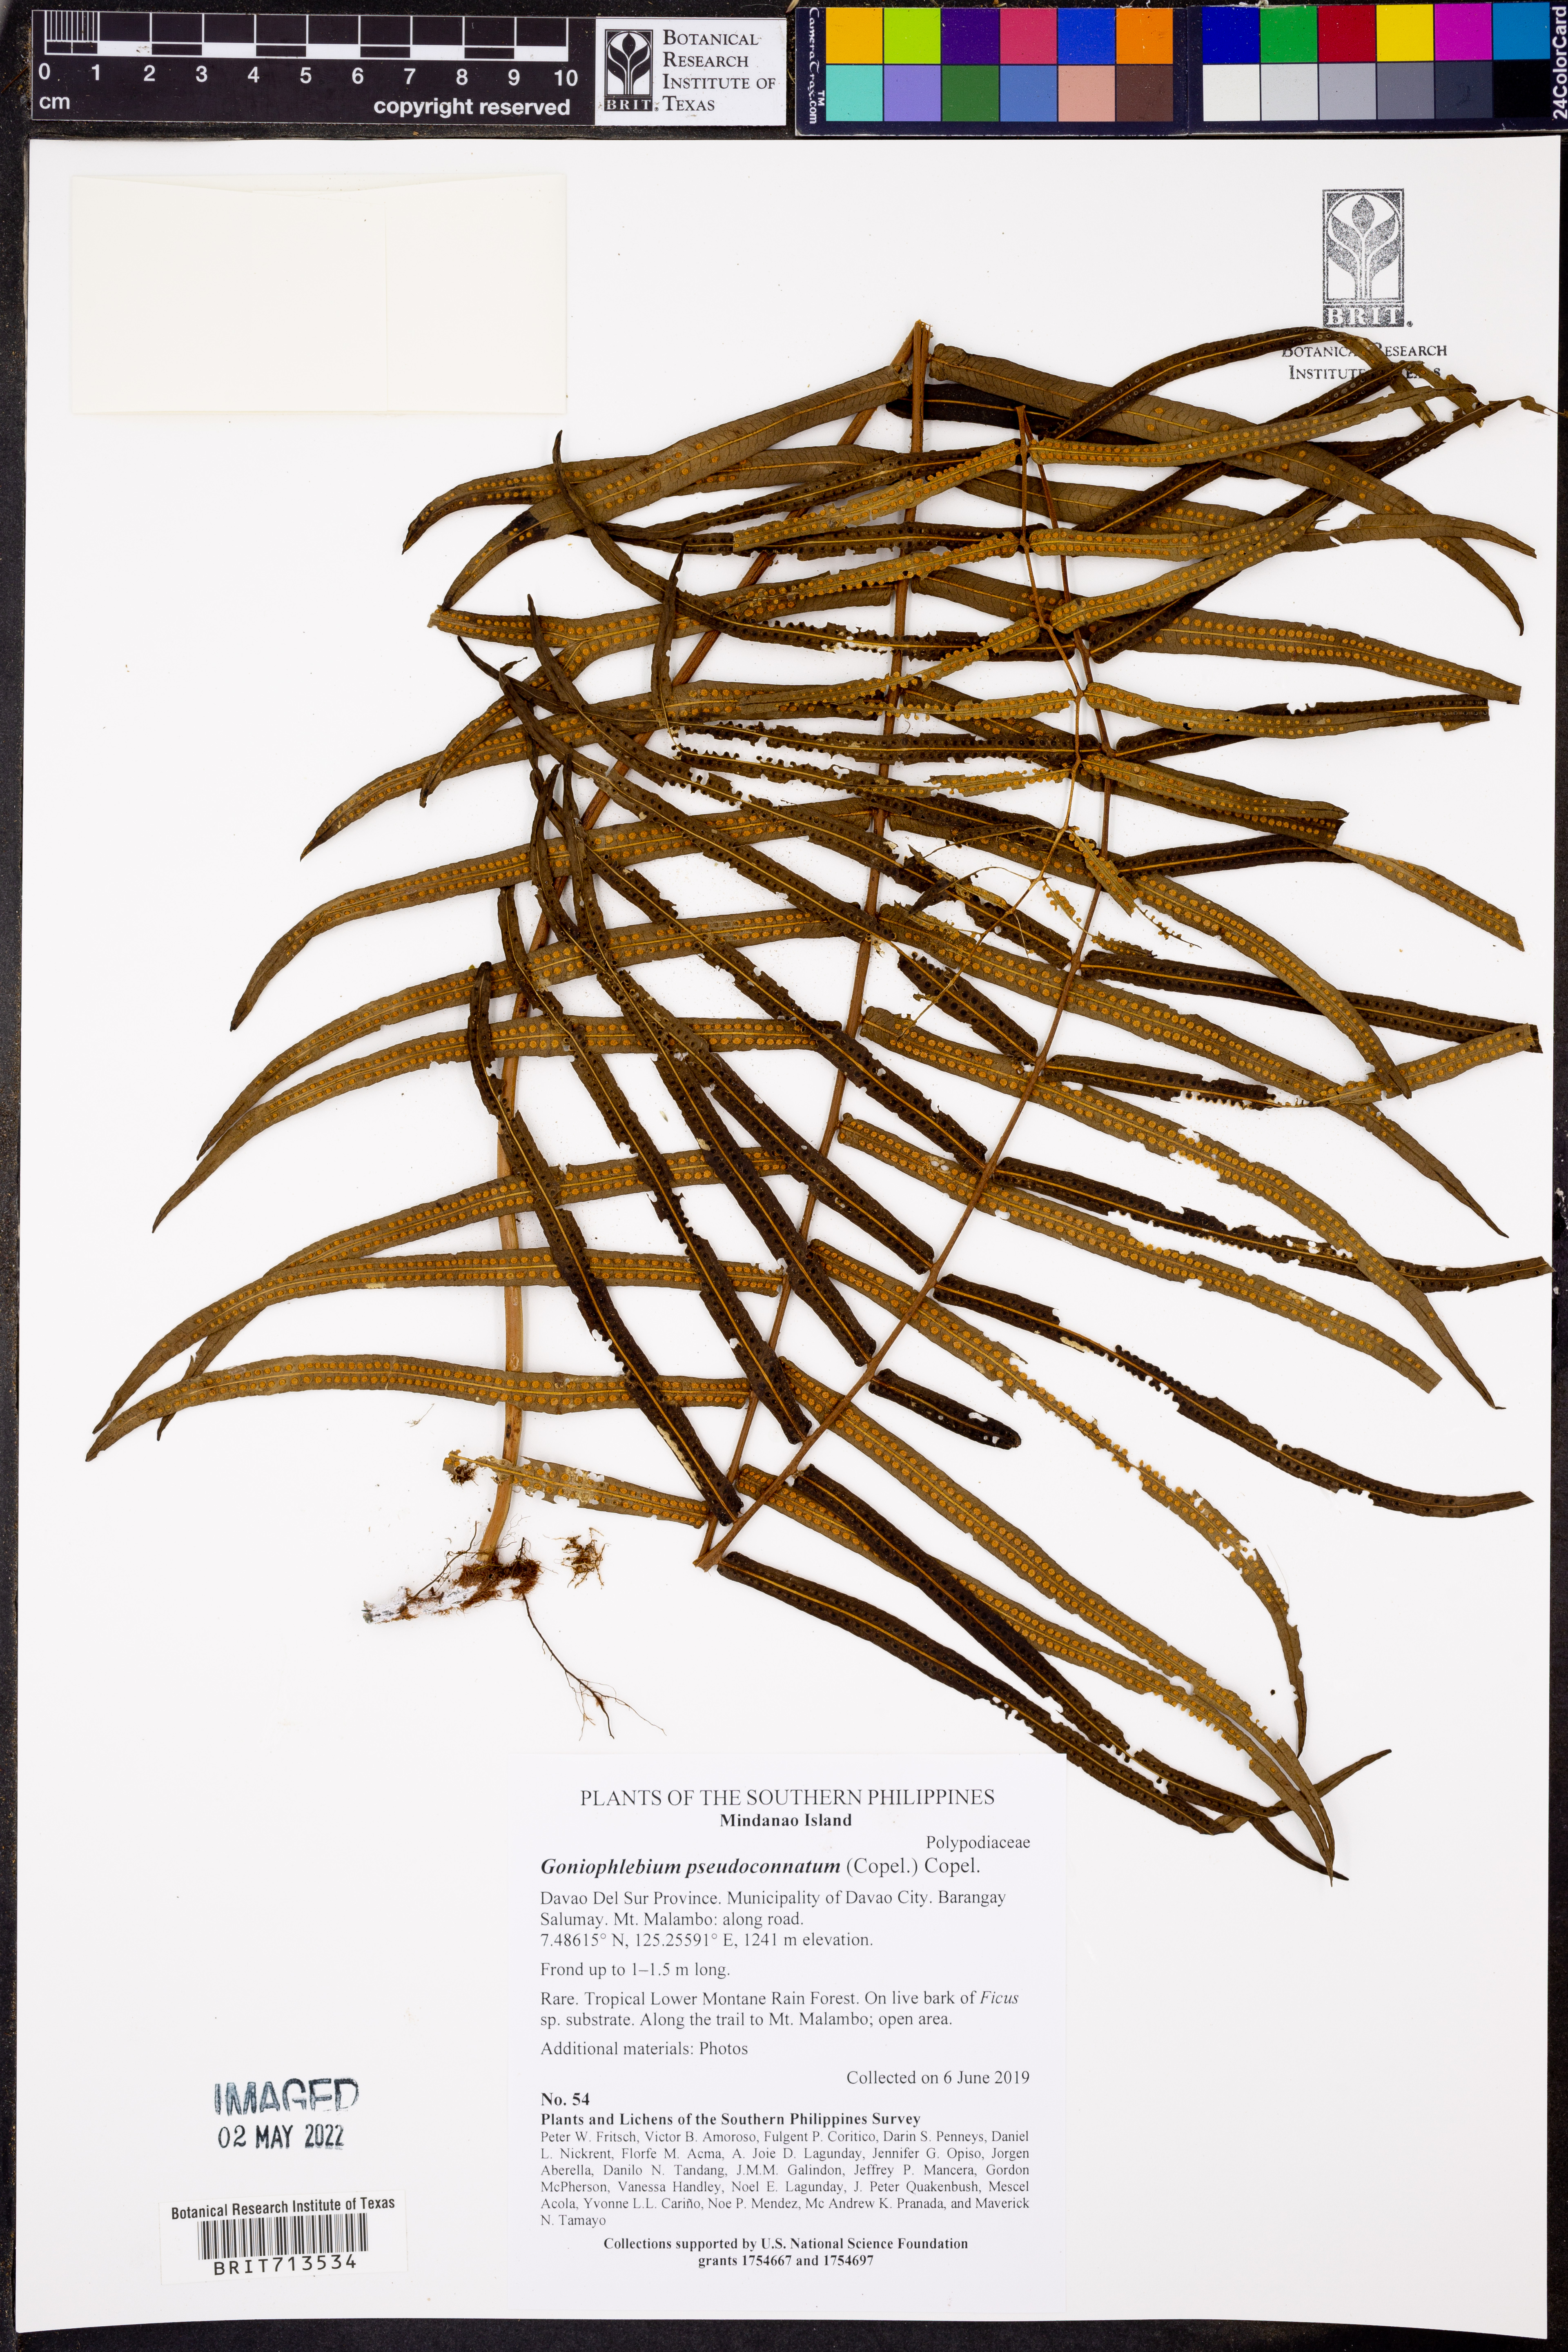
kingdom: Plantae
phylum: Tracheophyta
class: Polypodiopsida
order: Polypodiales
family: Polypodiaceae
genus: Goniophlebium
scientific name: Goniophlebium pseudoconnatum
